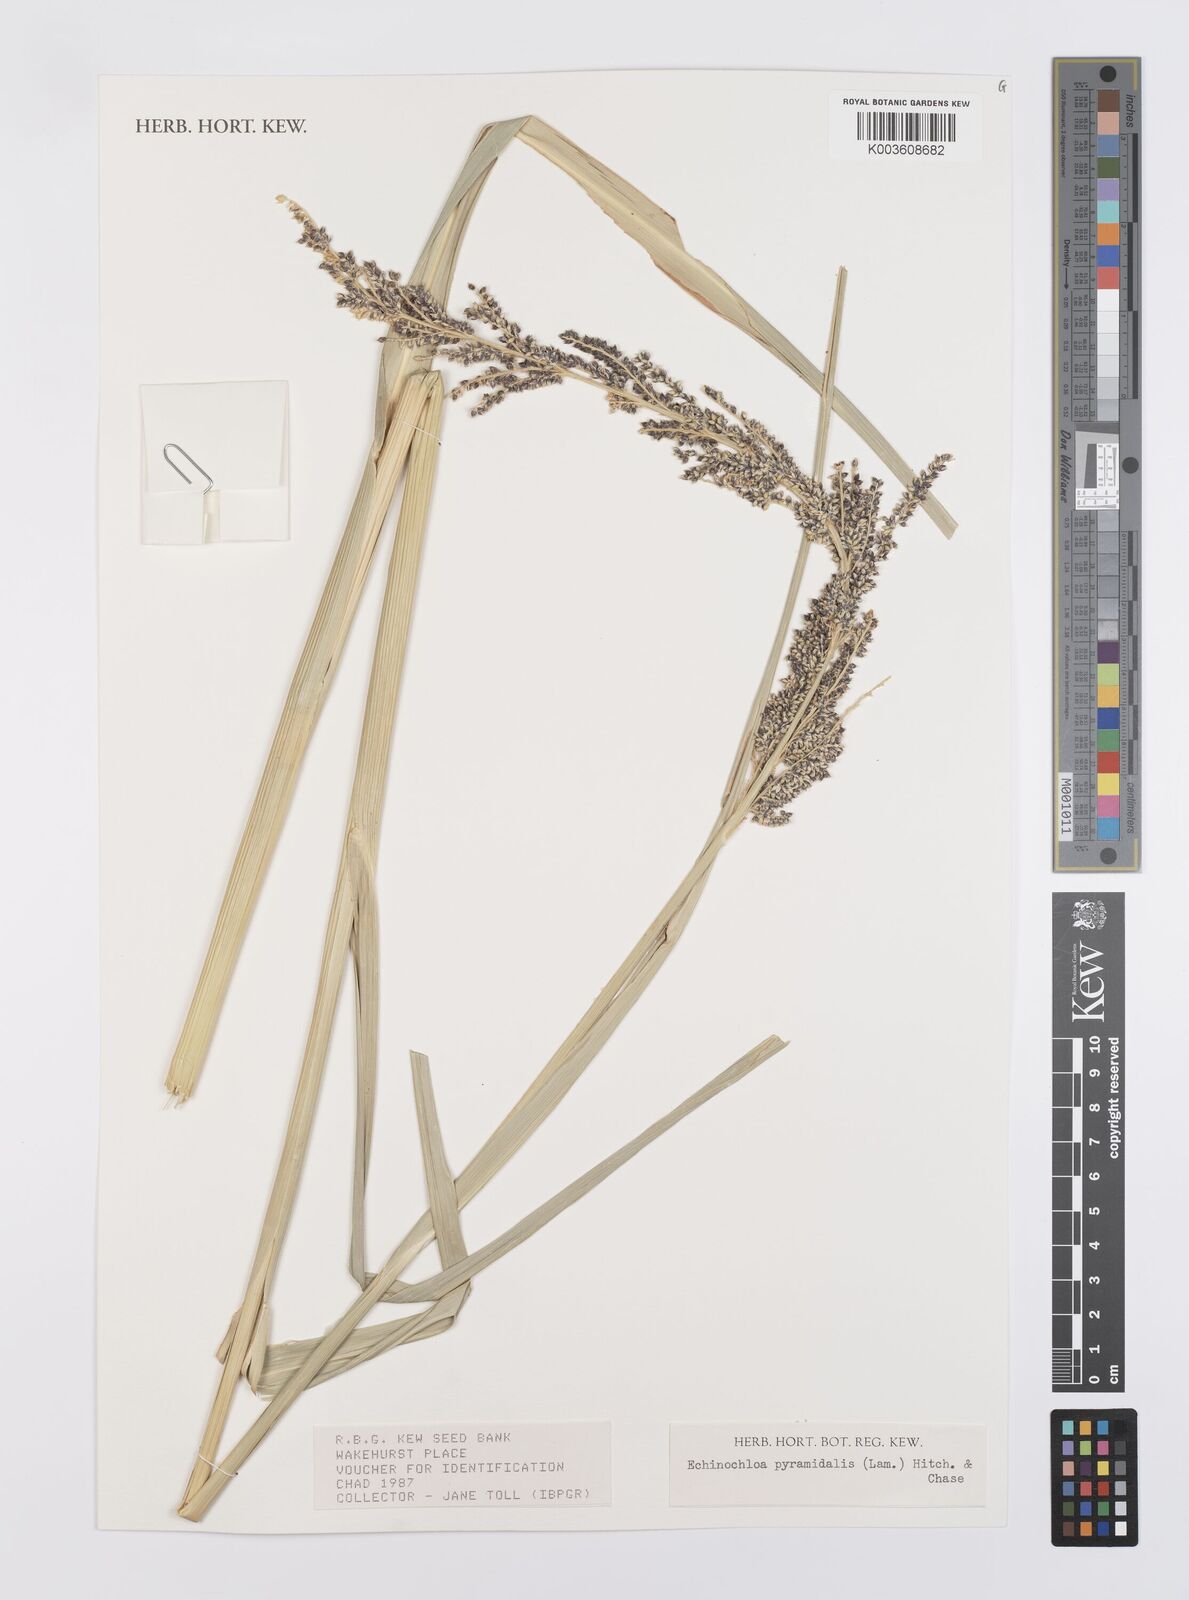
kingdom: Plantae
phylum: Tracheophyta
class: Liliopsida
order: Poales
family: Poaceae
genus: Echinochloa
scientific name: Echinochloa pyramidalis
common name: Antelope grass
